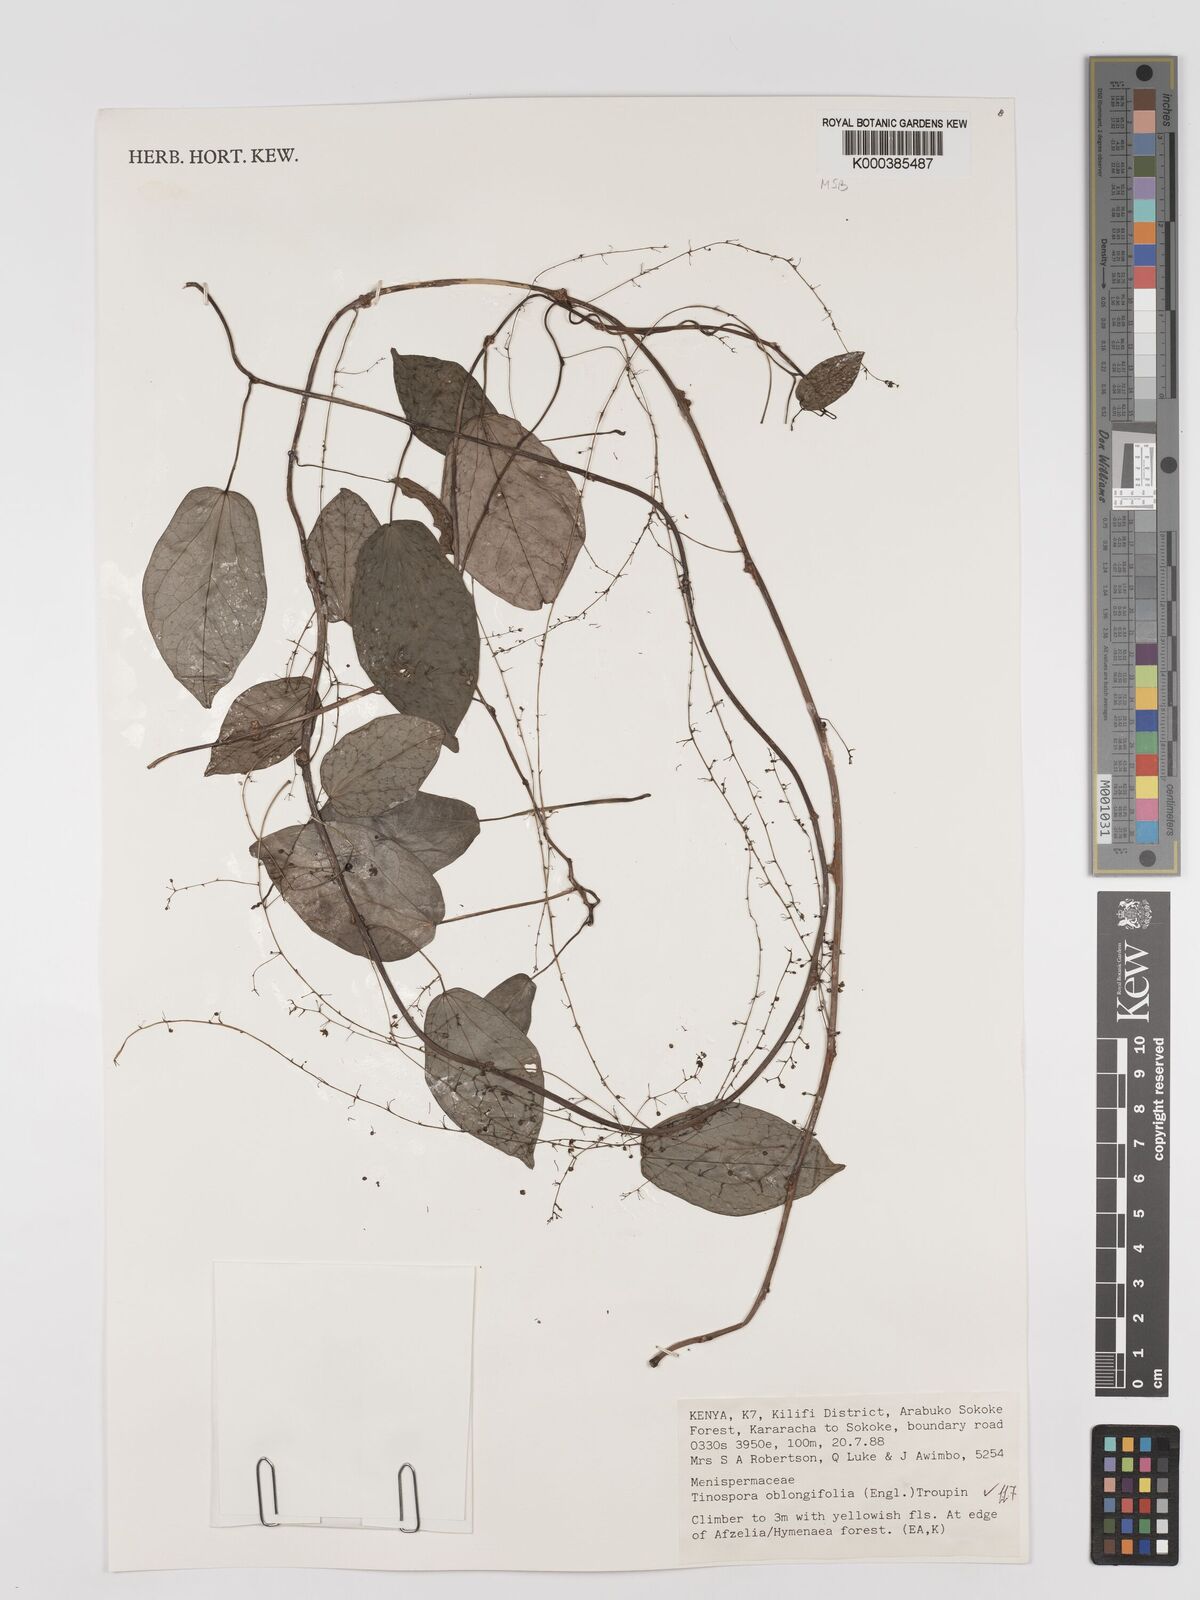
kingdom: Plantae
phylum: Tracheophyta
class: Magnoliopsida
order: Ranunculales
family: Menispermaceae
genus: Tinospora
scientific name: Tinospora oblongifolia
